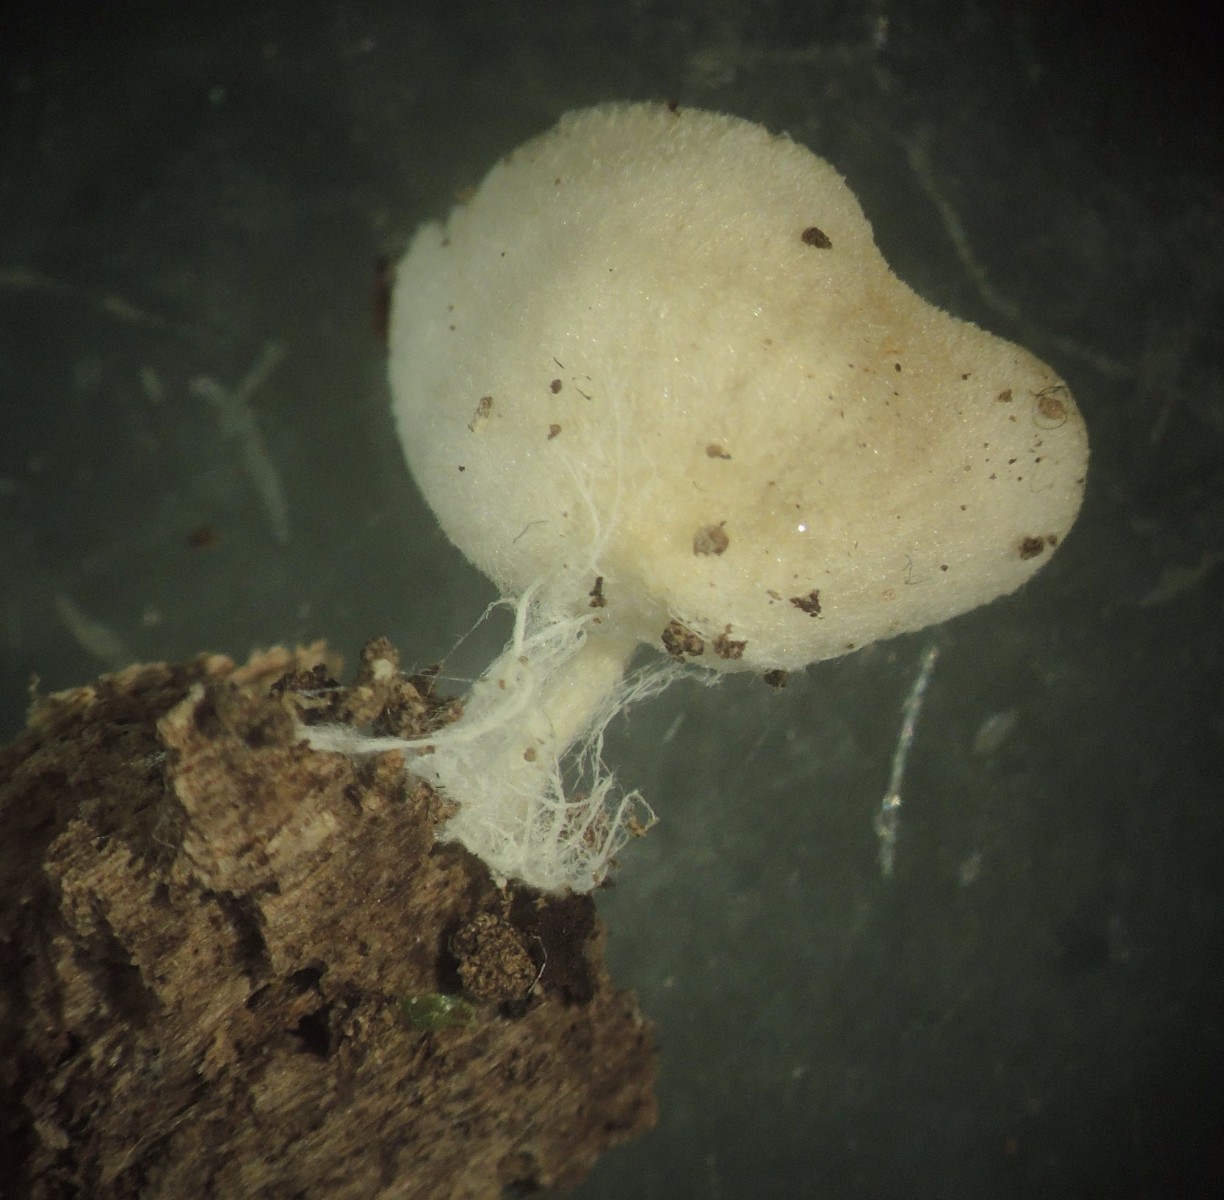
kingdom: Fungi
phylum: Basidiomycota
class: Agaricomycetes
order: Agaricales
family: Entolomataceae
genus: Entoloma
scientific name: Entoloma
